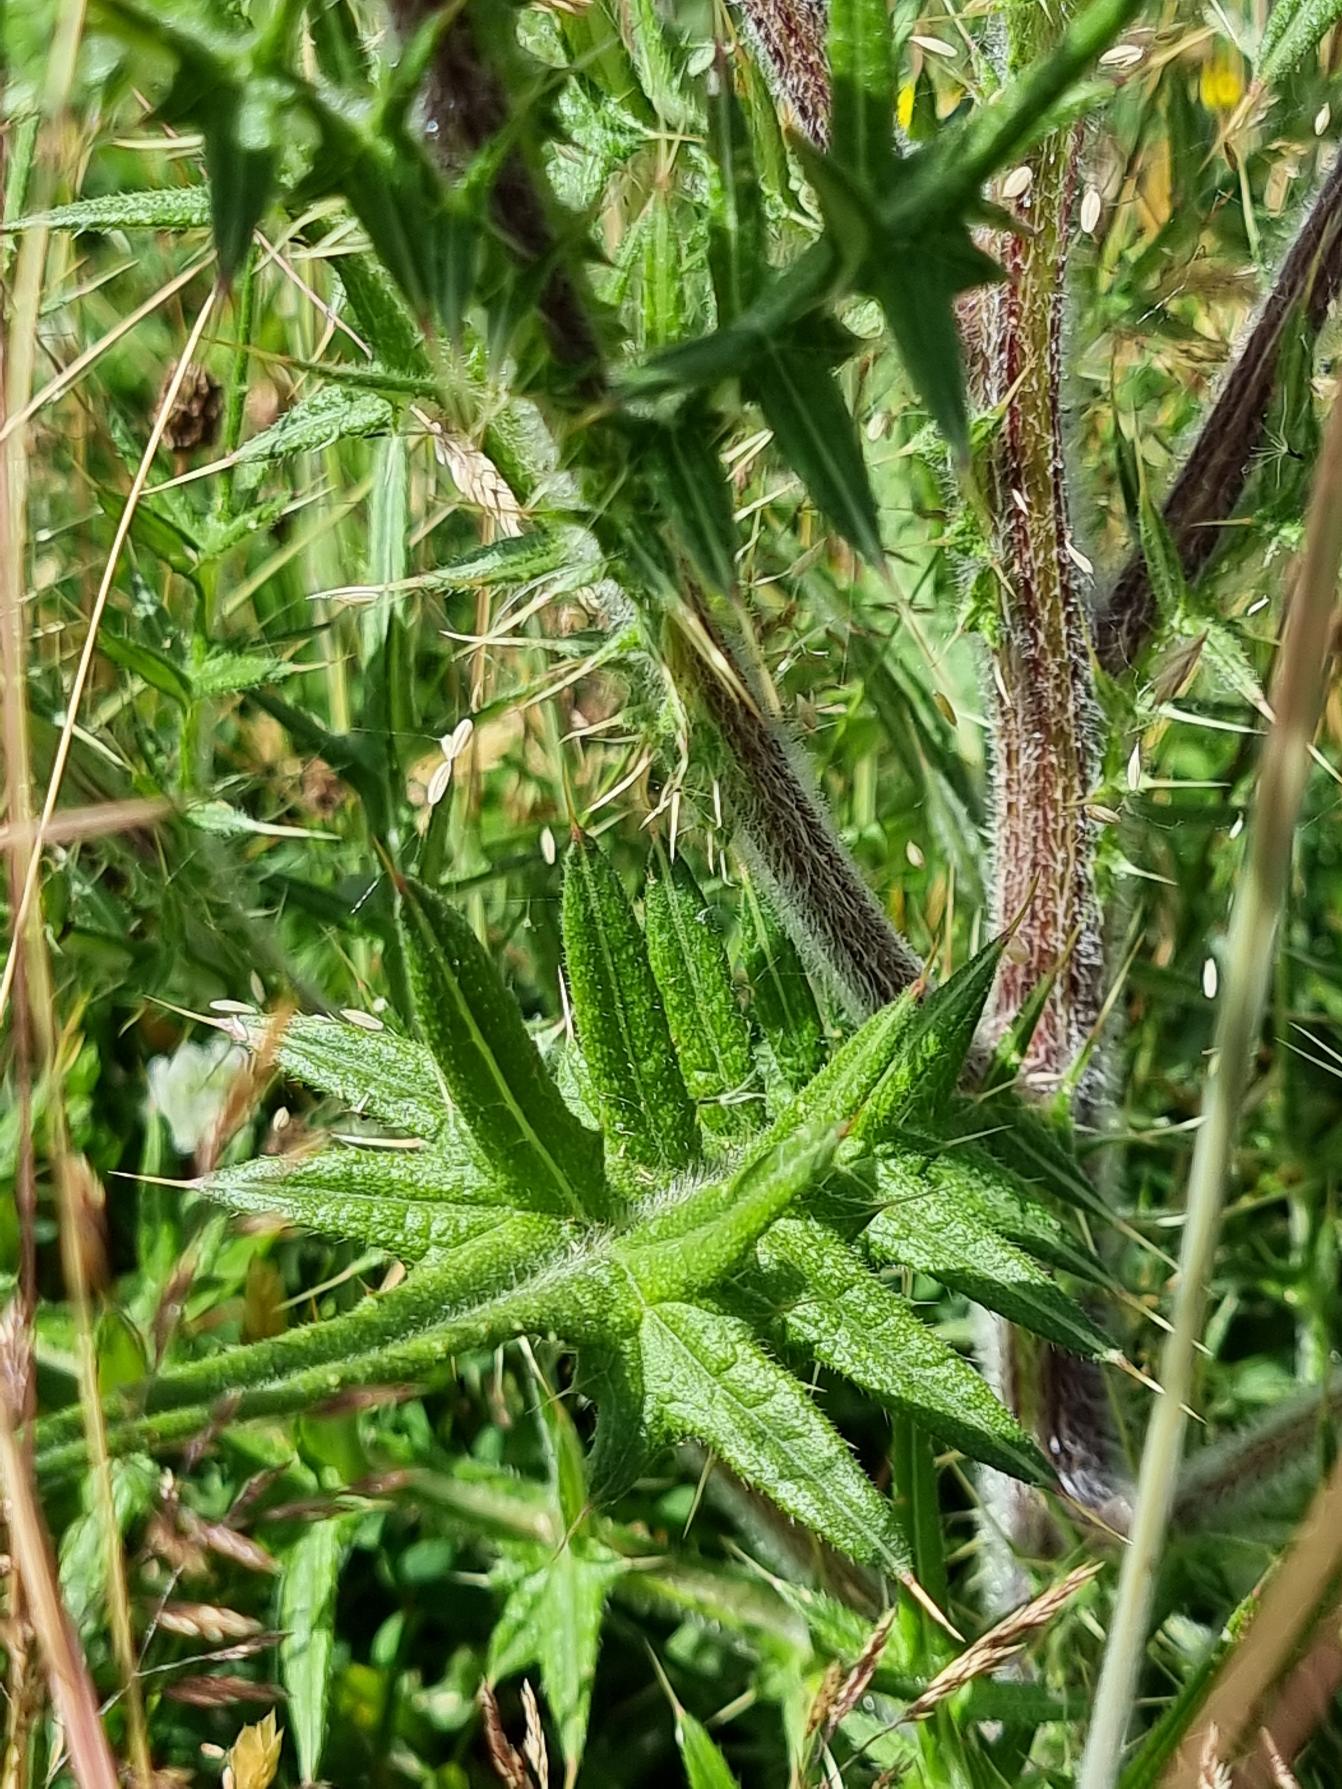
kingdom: Plantae
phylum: Tracheophyta
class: Magnoliopsida
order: Asterales
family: Asteraceae
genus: Cirsium
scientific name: Cirsium vulgare
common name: Horse-tidsel
